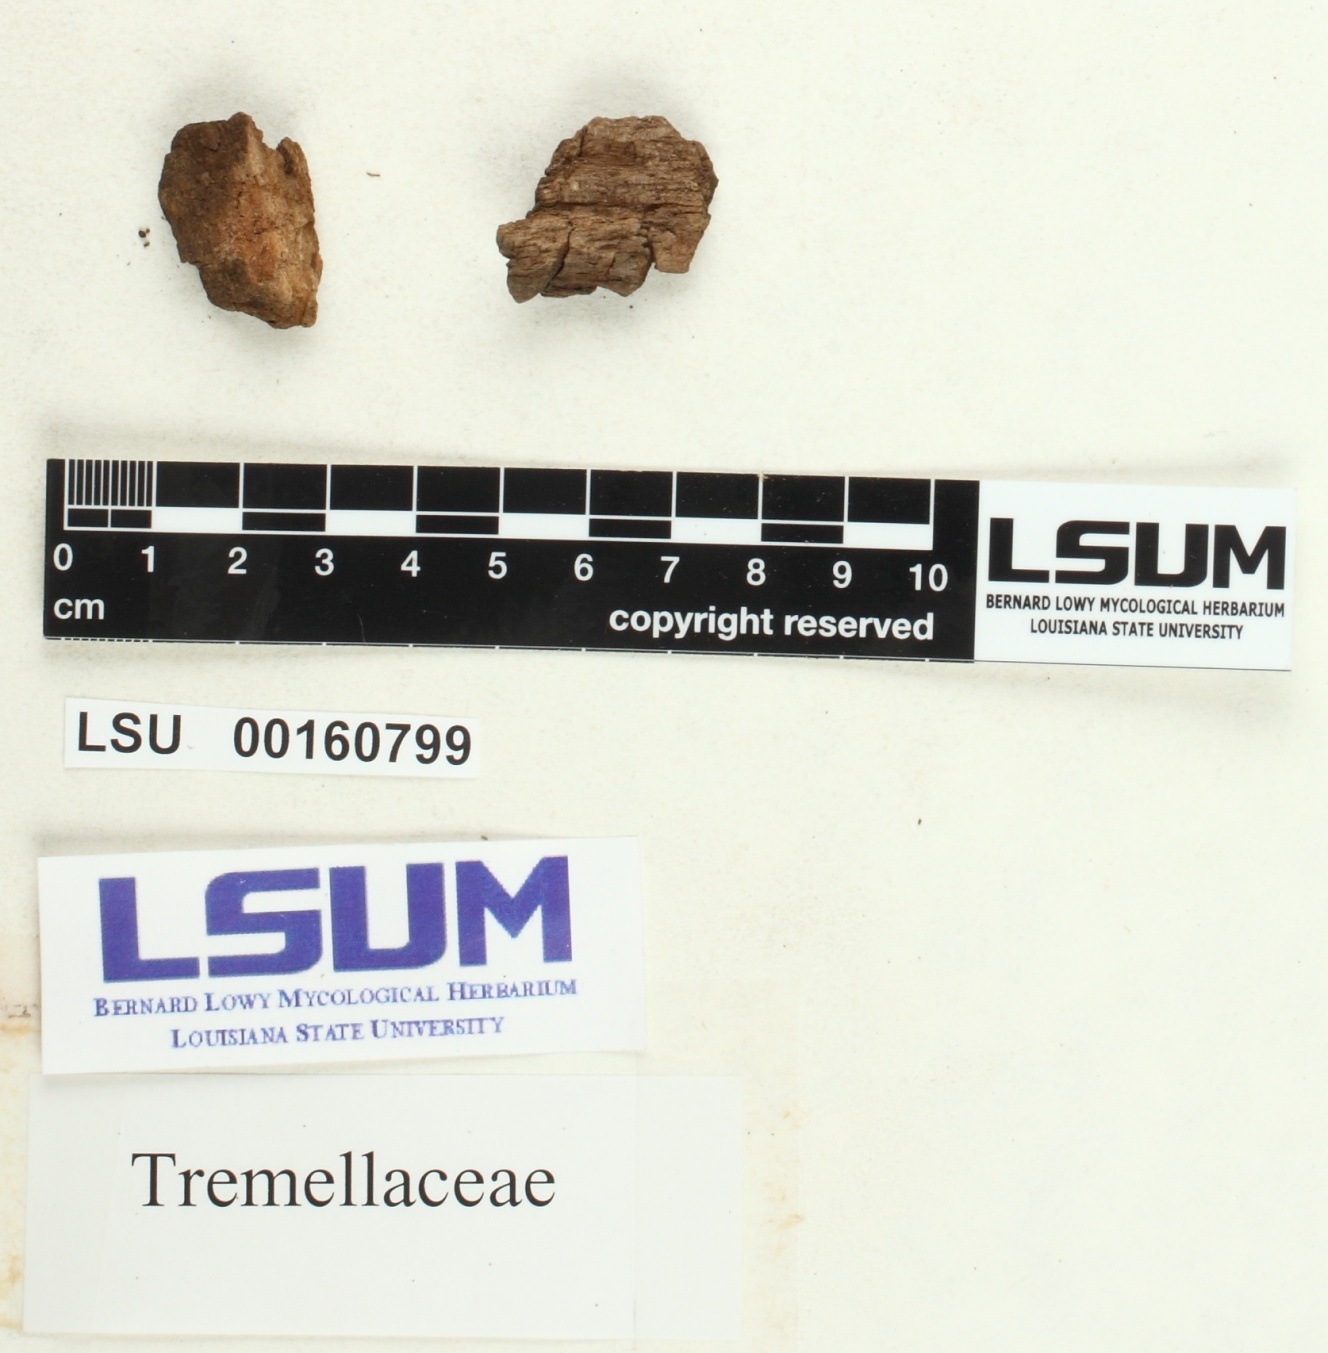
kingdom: Fungi
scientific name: Fungi
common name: Fungi
